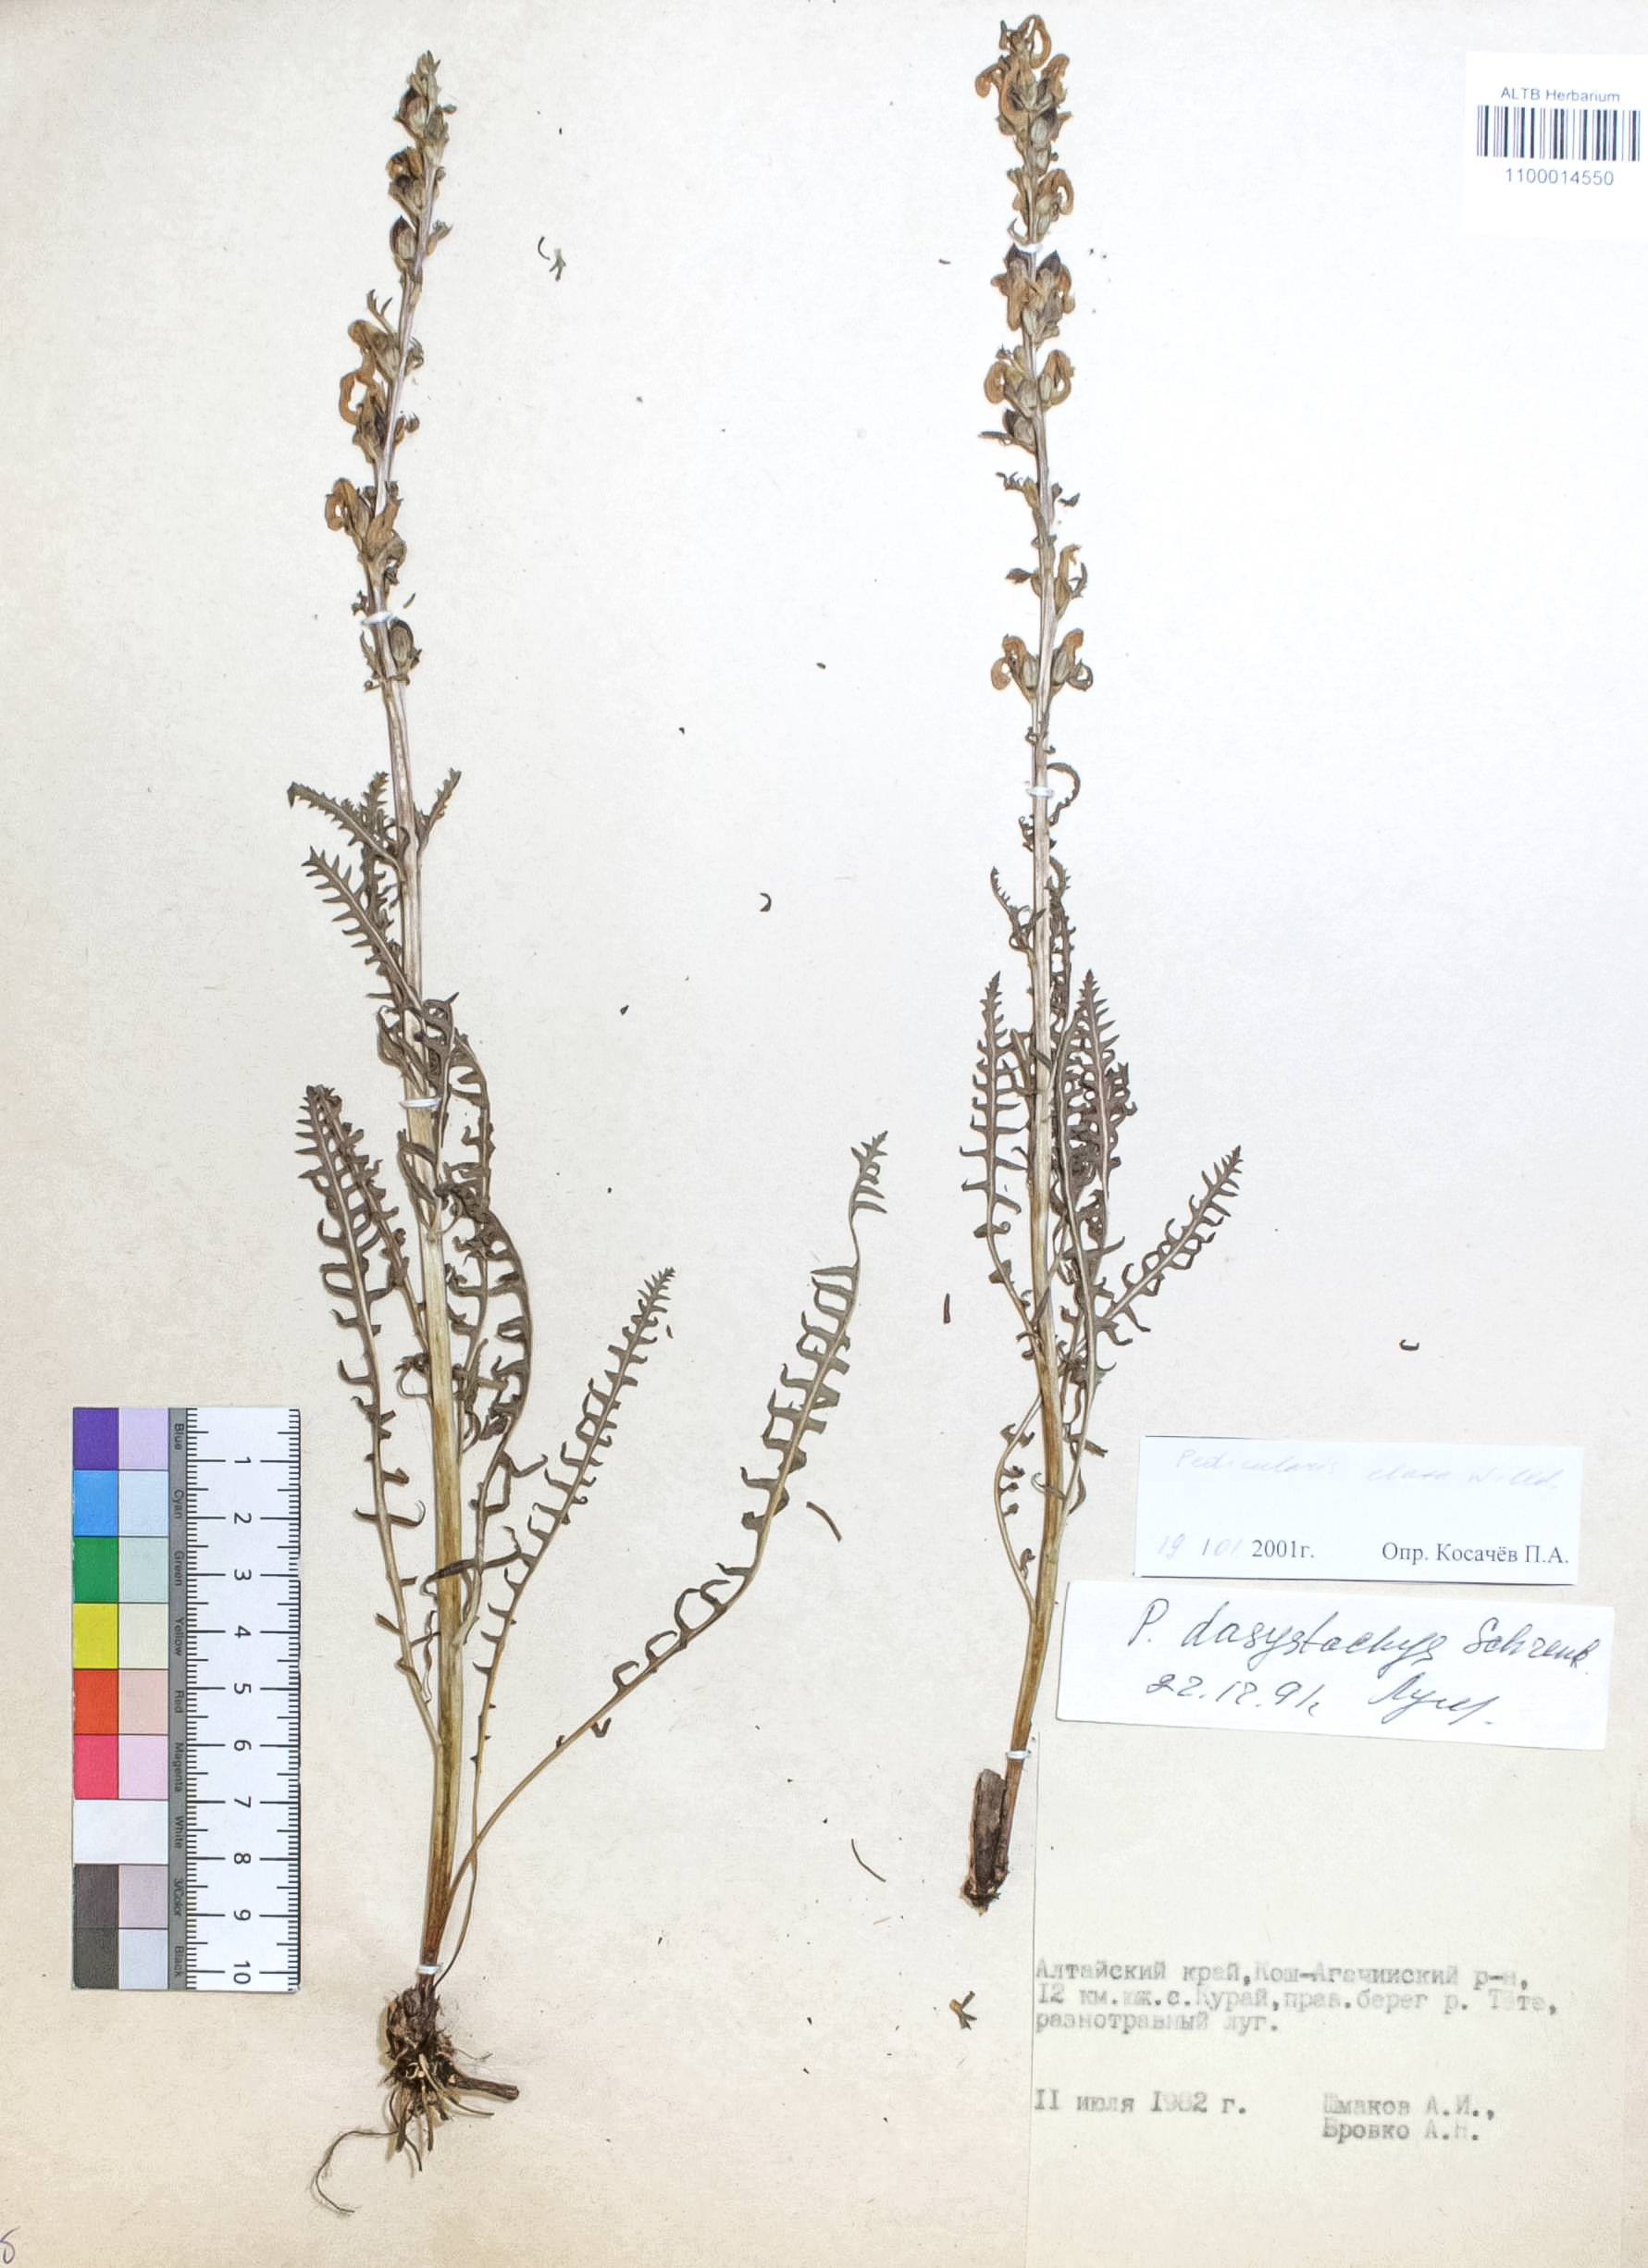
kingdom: Plantae
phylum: Tracheophyta
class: Magnoliopsida
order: Lamiales
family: Orobanchaceae
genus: Pedicularis
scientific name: Pedicularis elata
